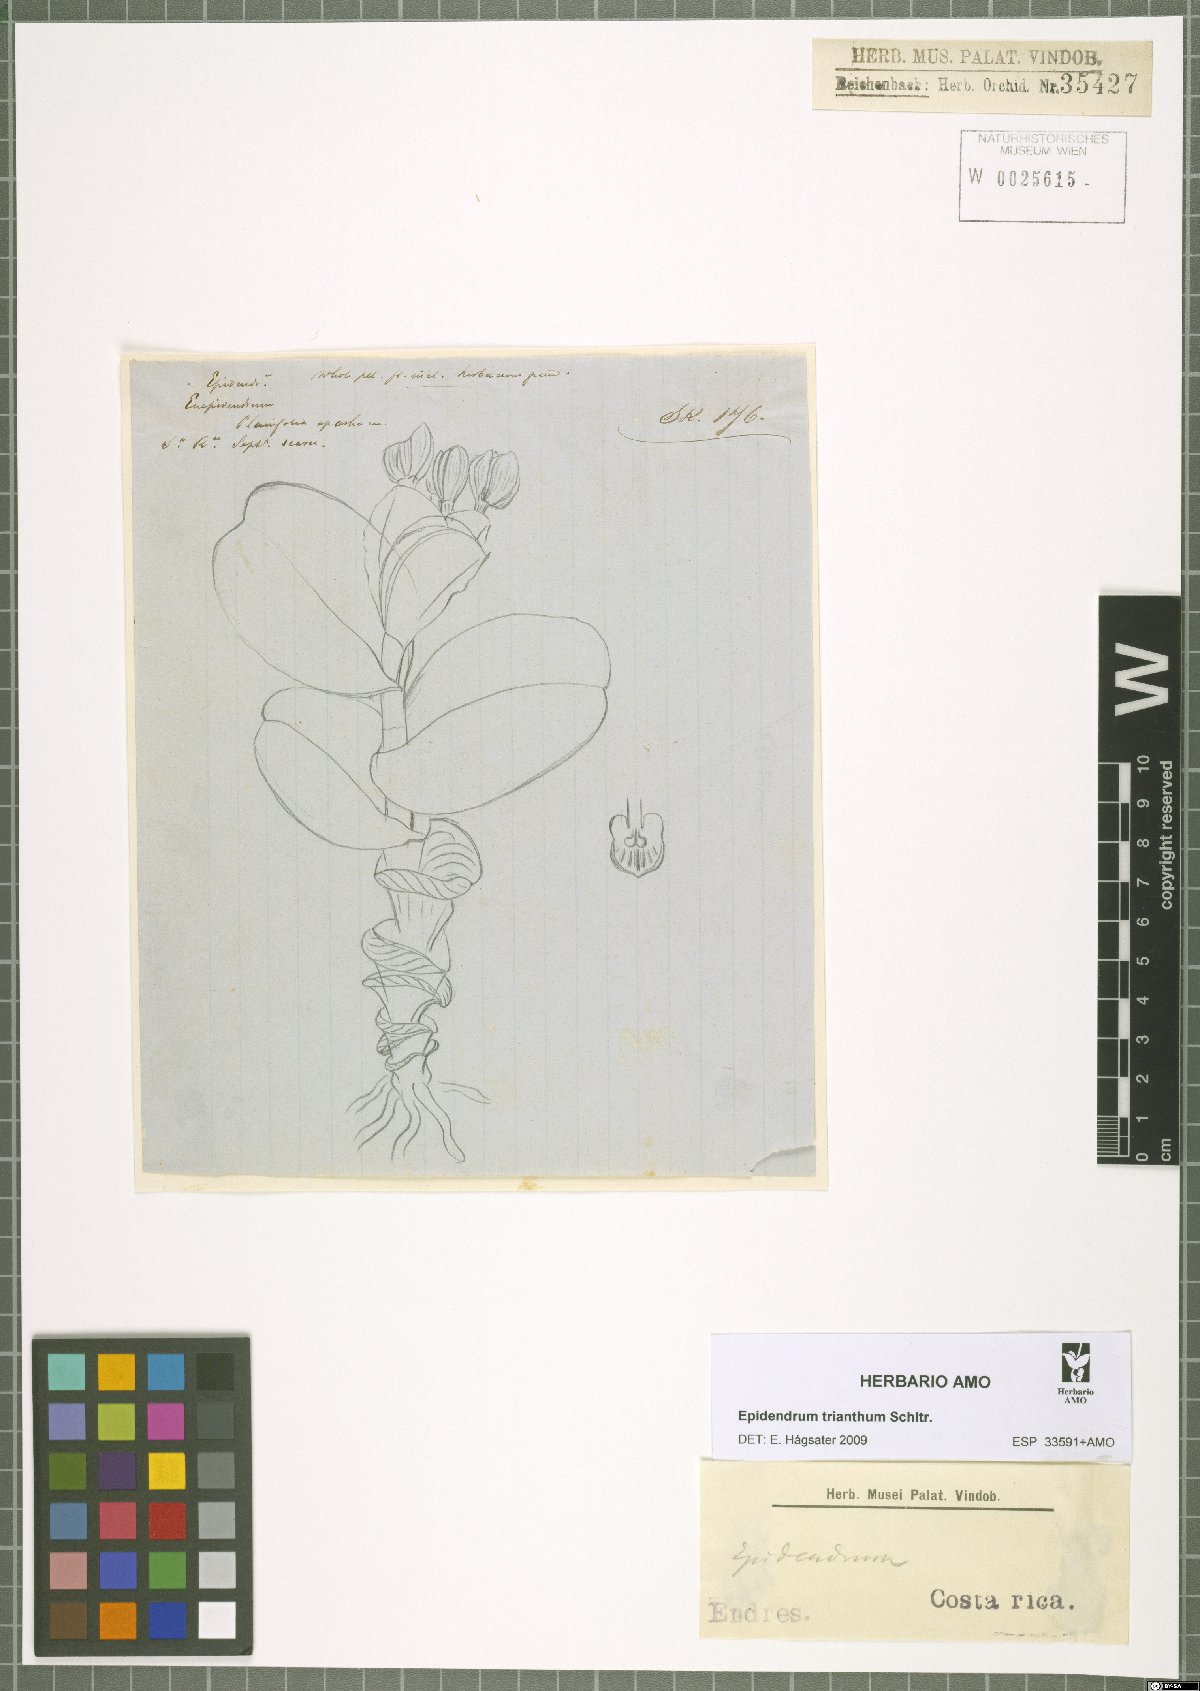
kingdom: Plantae
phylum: Tracheophyta
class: Liliopsida
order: Asparagales
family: Orchidaceae
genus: Epidendrum
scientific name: Epidendrum trianthum
